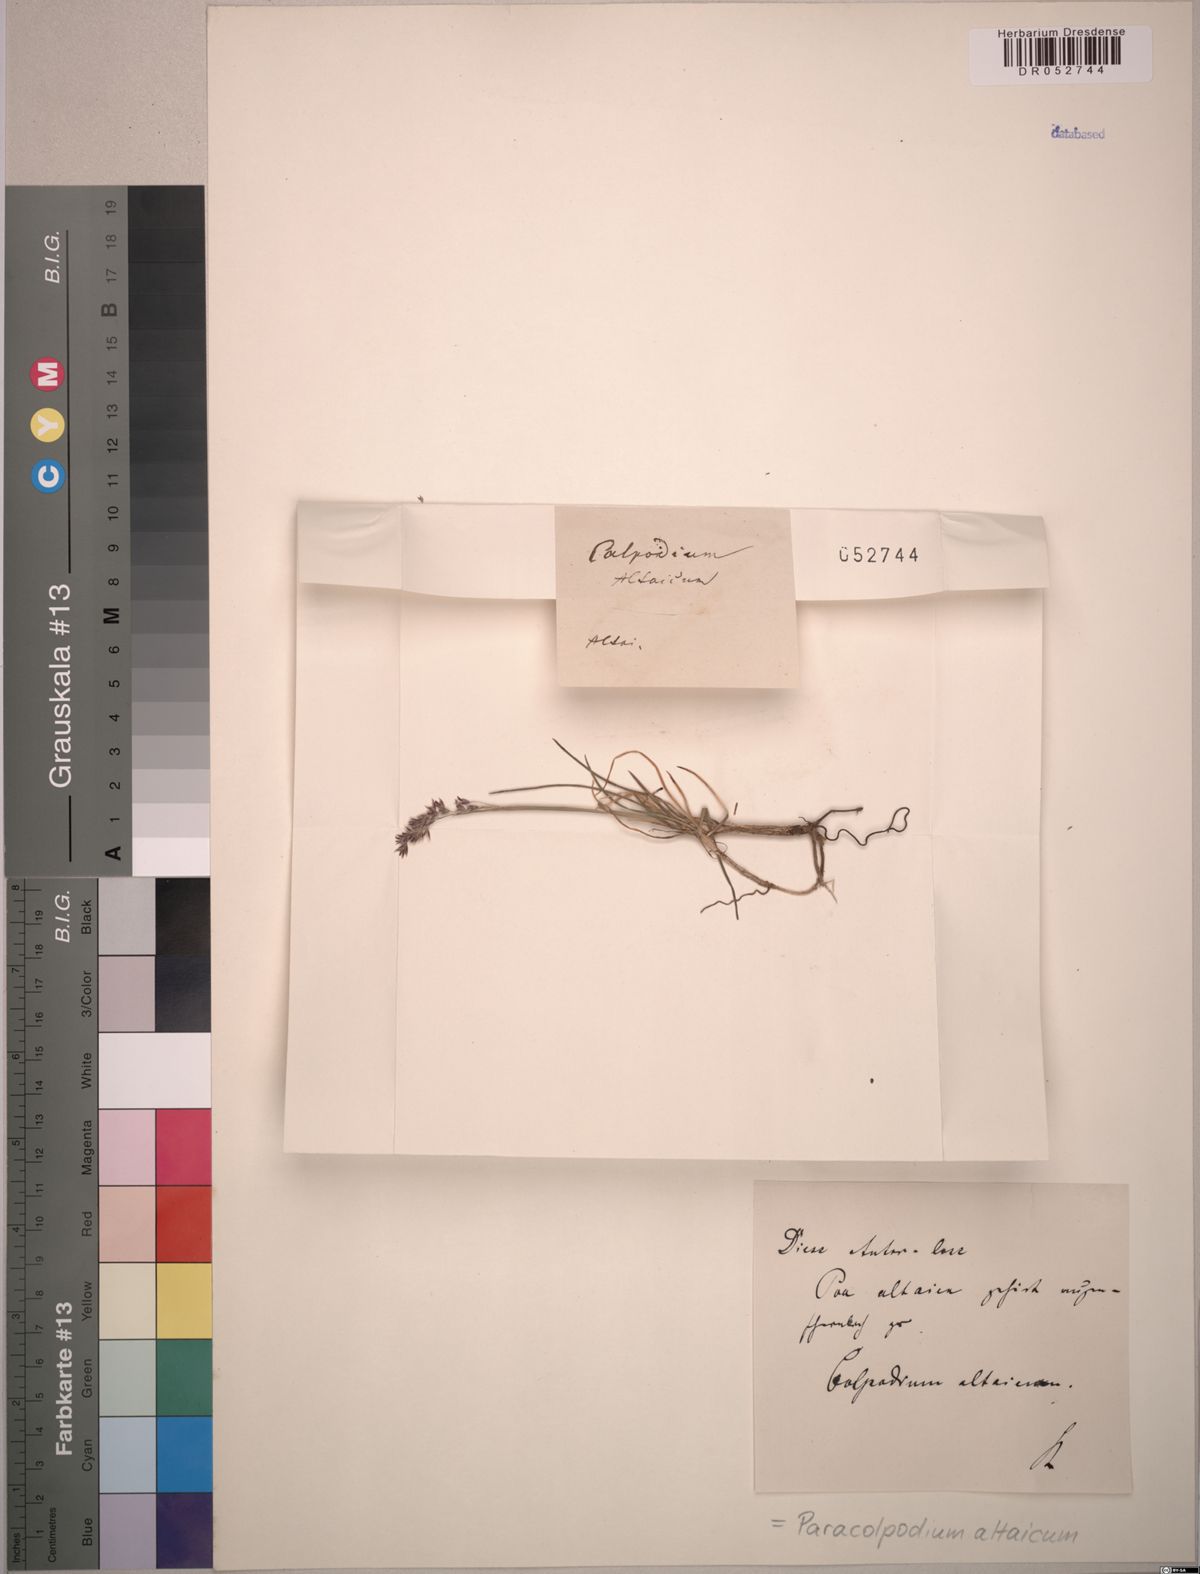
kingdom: Plantae
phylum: Tracheophyta
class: Liliopsida
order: Poales
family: Poaceae
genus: Paracolpodium
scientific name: Paracolpodium altaicum
